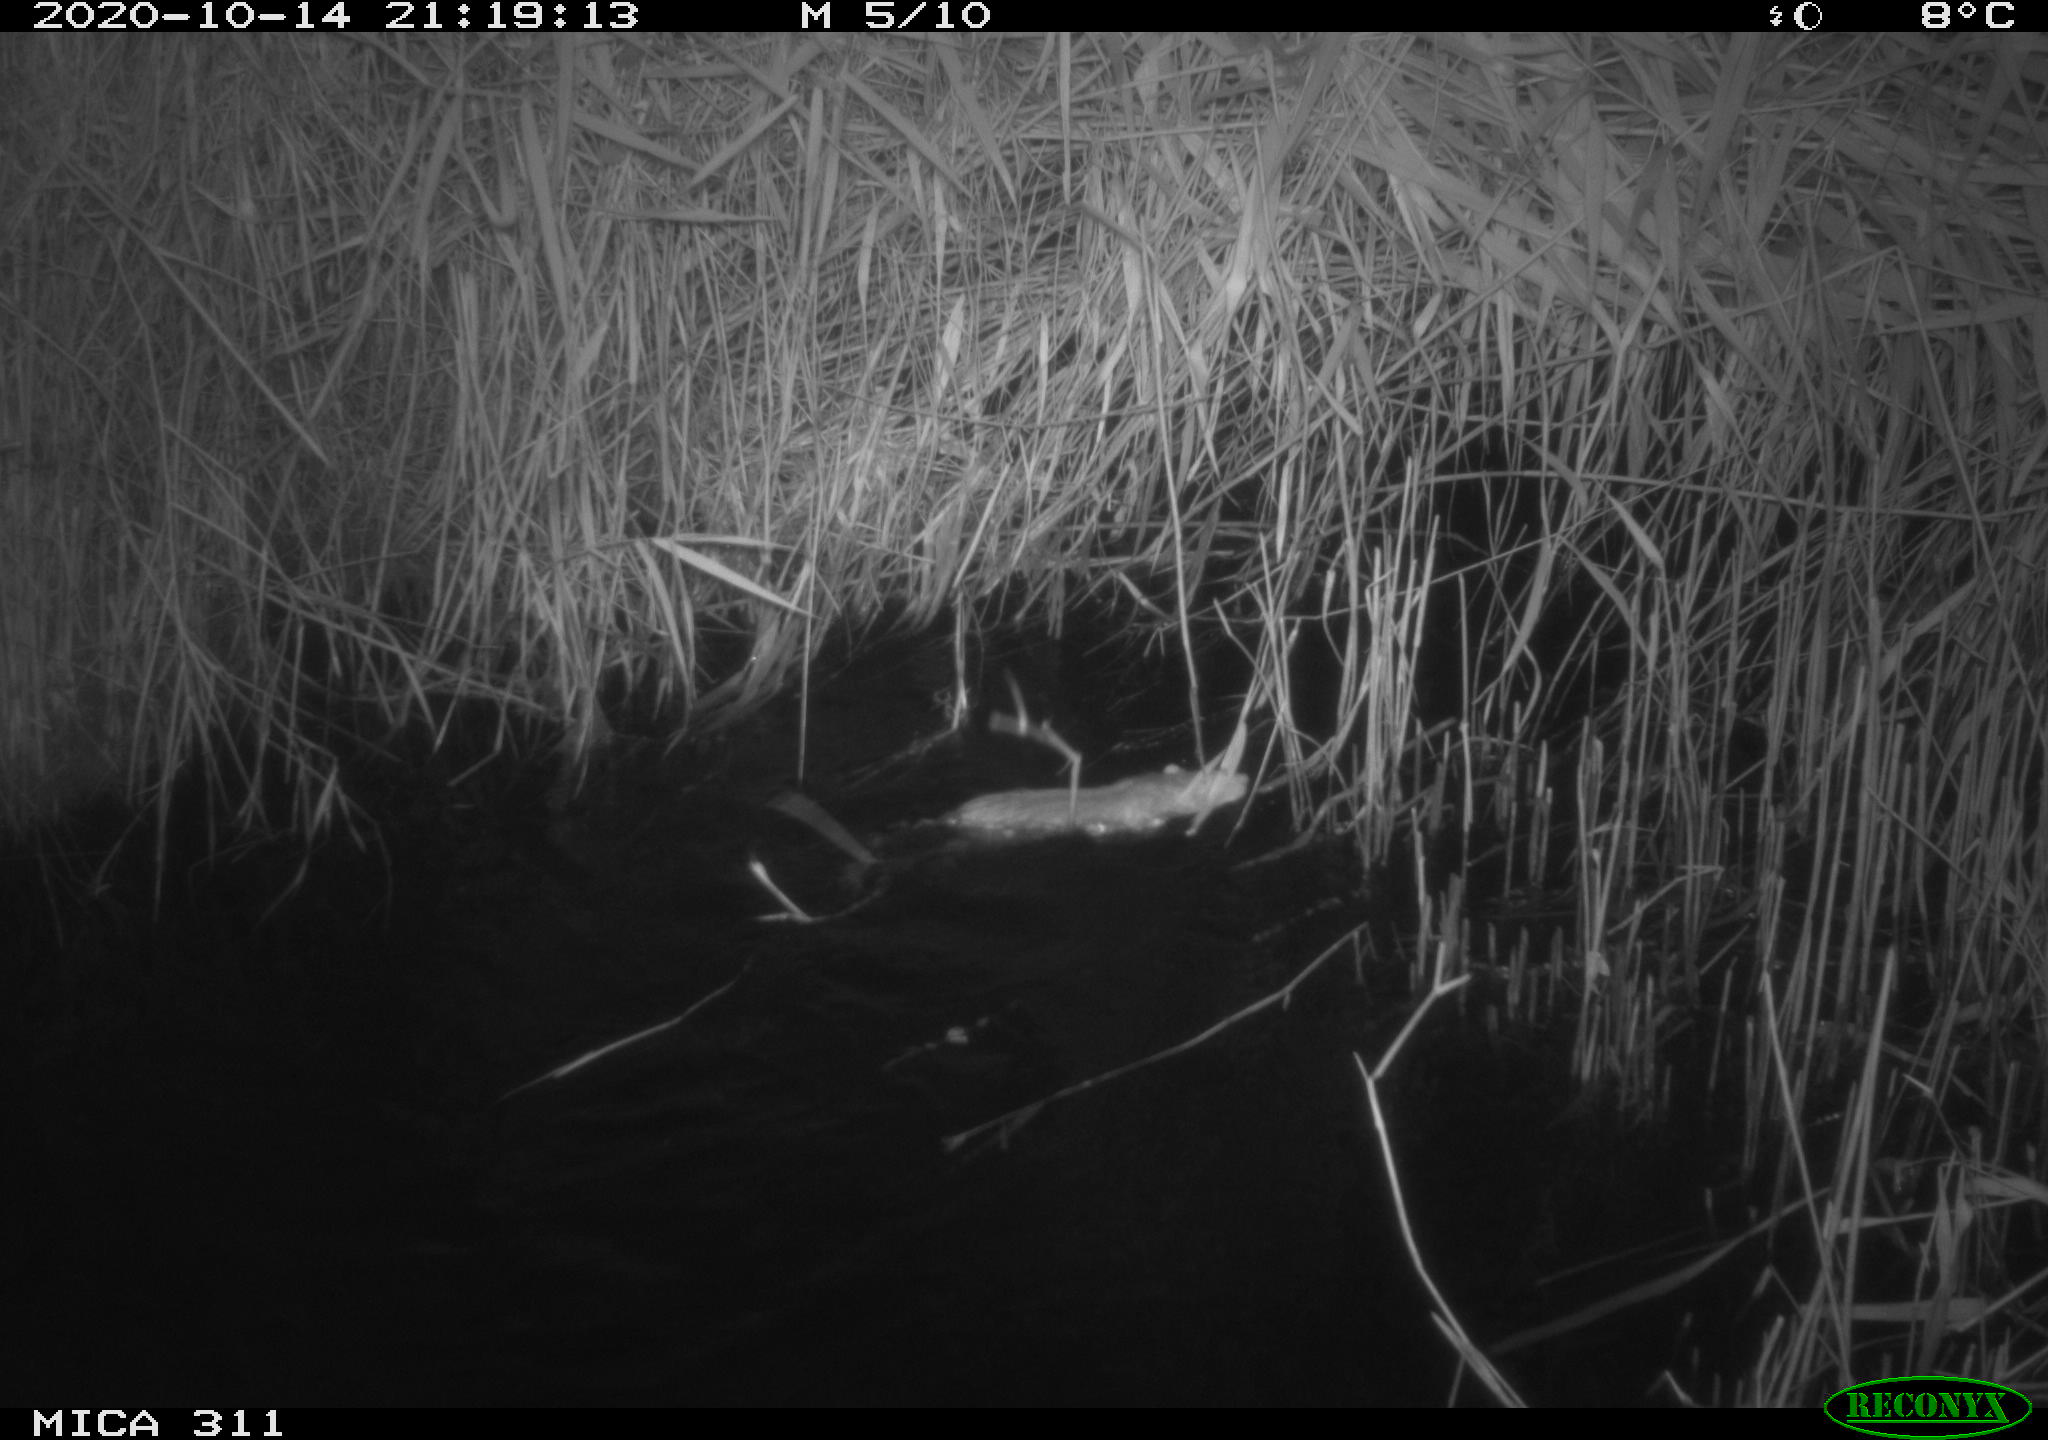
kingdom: Animalia
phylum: Chordata
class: Mammalia
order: Rodentia
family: Cricetidae
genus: Ondatra
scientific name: Ondatra zibethicus
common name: Muskrat
